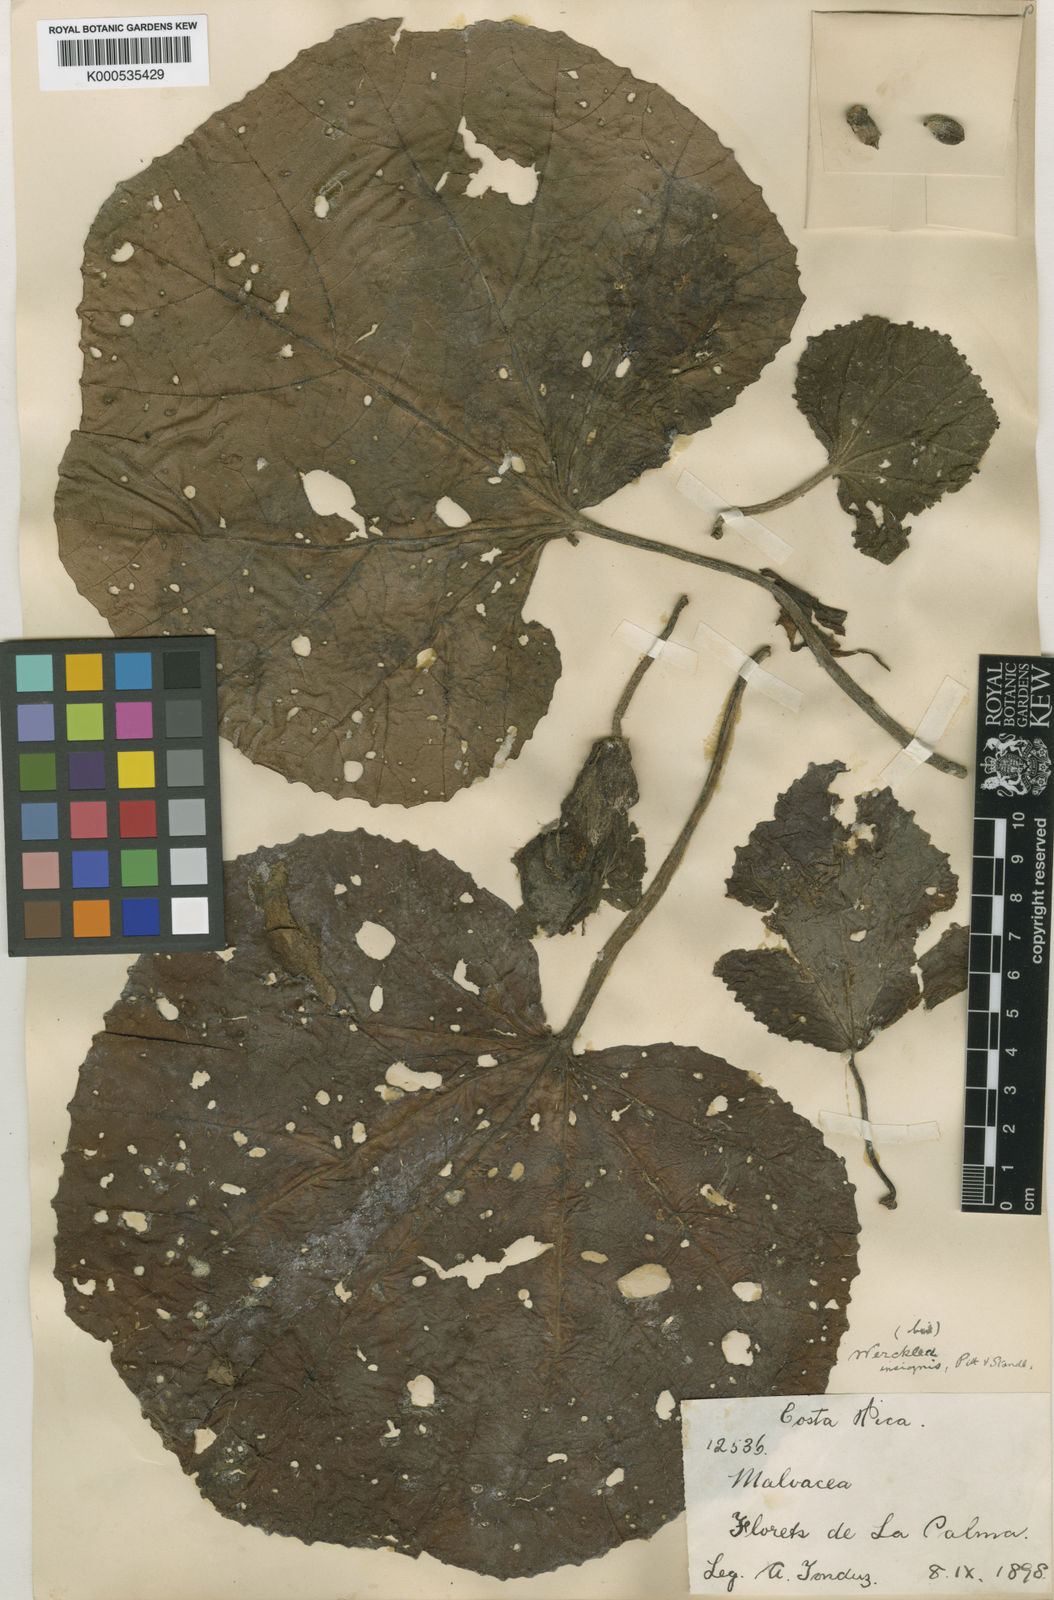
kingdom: Plantae
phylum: Tracheophyta
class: Magnoliopsida
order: Malvales
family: Malvaceae
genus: Wercklea
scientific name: Wercklea insignis
